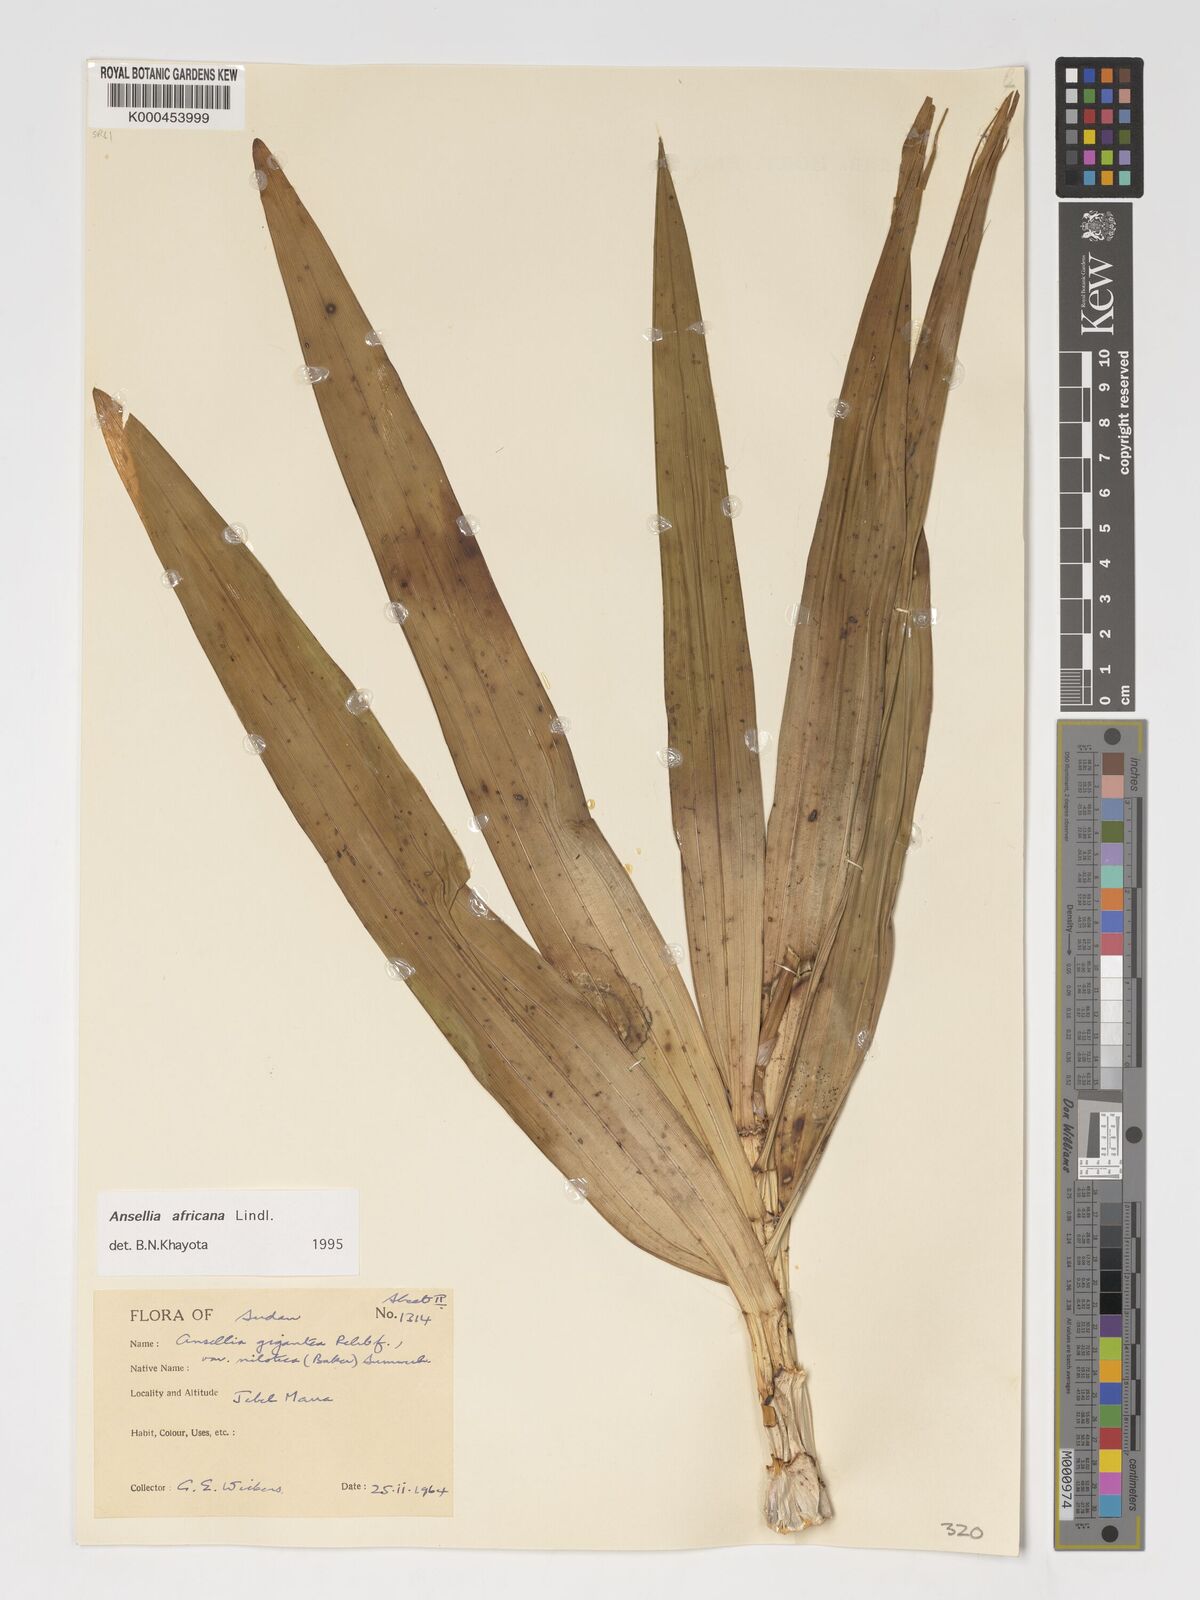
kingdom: Plantae
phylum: Tracheophyta
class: Liliopsida
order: Asparagales
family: Orchidaceae
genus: Ansellia
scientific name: Ansellia africana
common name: African ansellia
